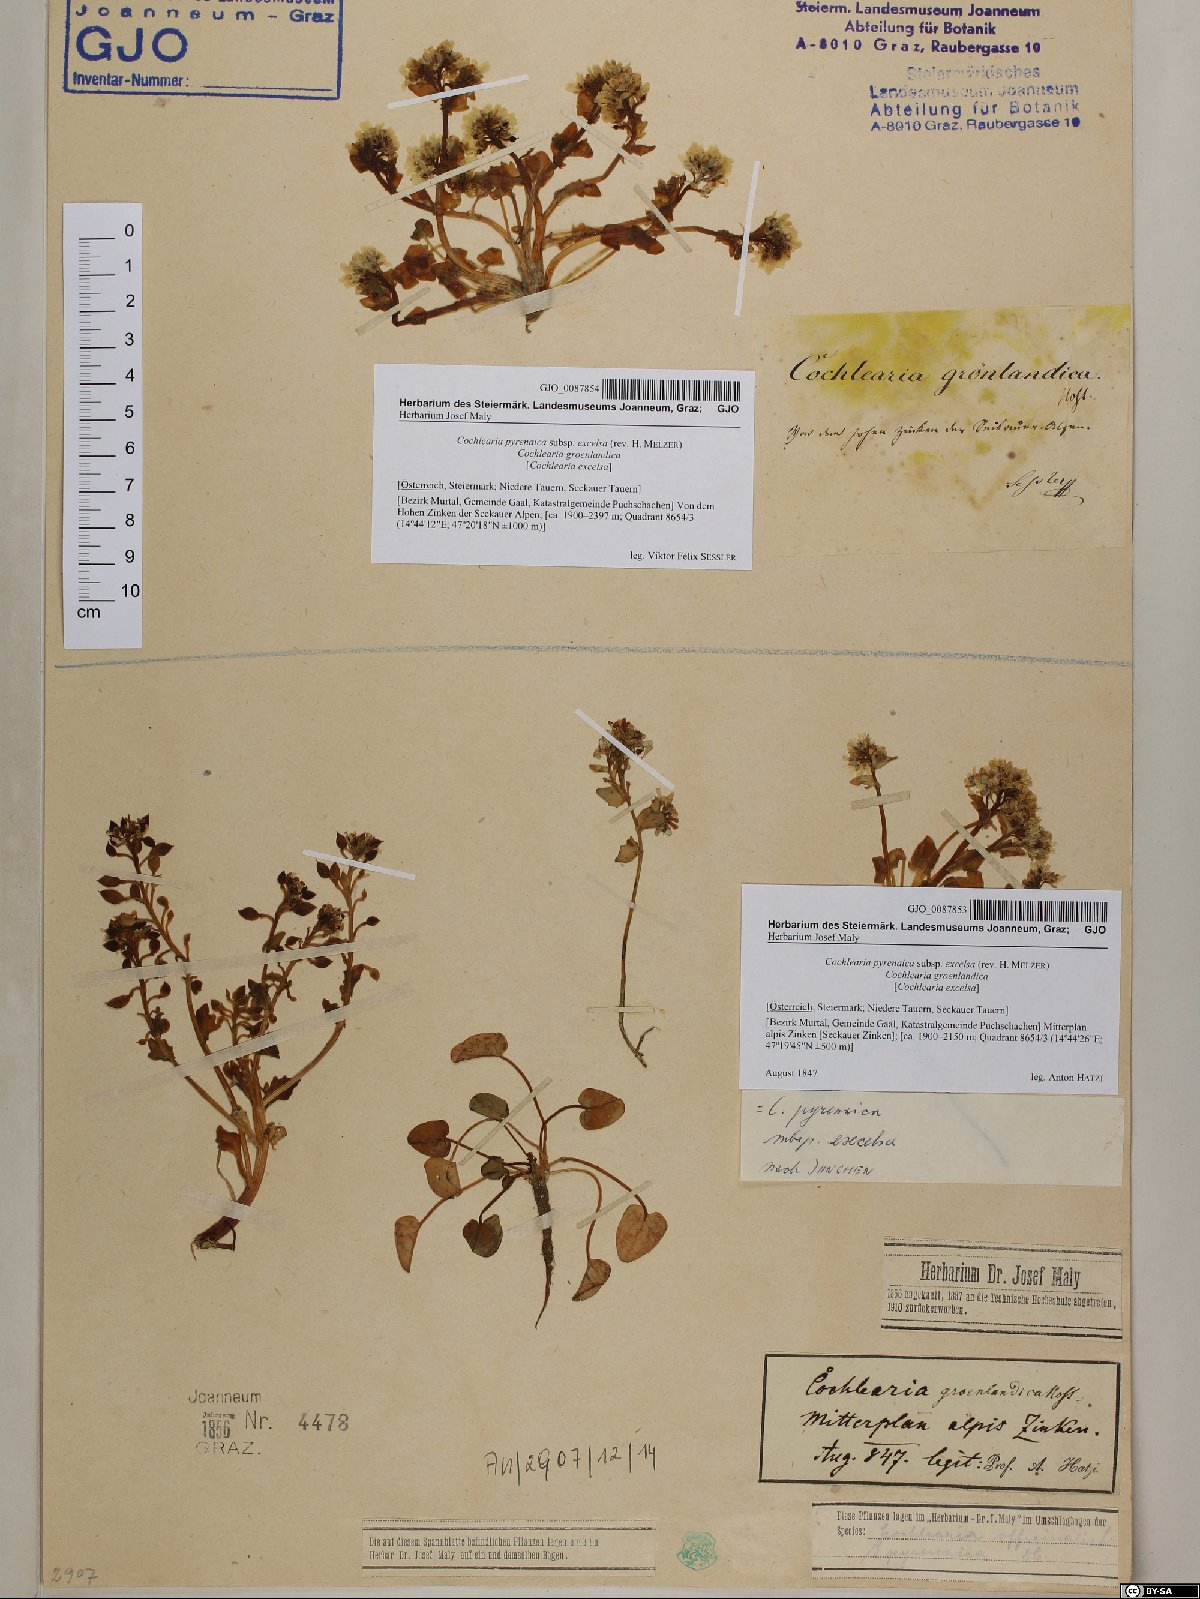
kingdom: Plantae
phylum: Tracheophyta
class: Magnoliopsida
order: Brassicales
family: Brassicaceae
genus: Cochlearia
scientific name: Cochlearia pyrenaica
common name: Upland scurvy-grass
